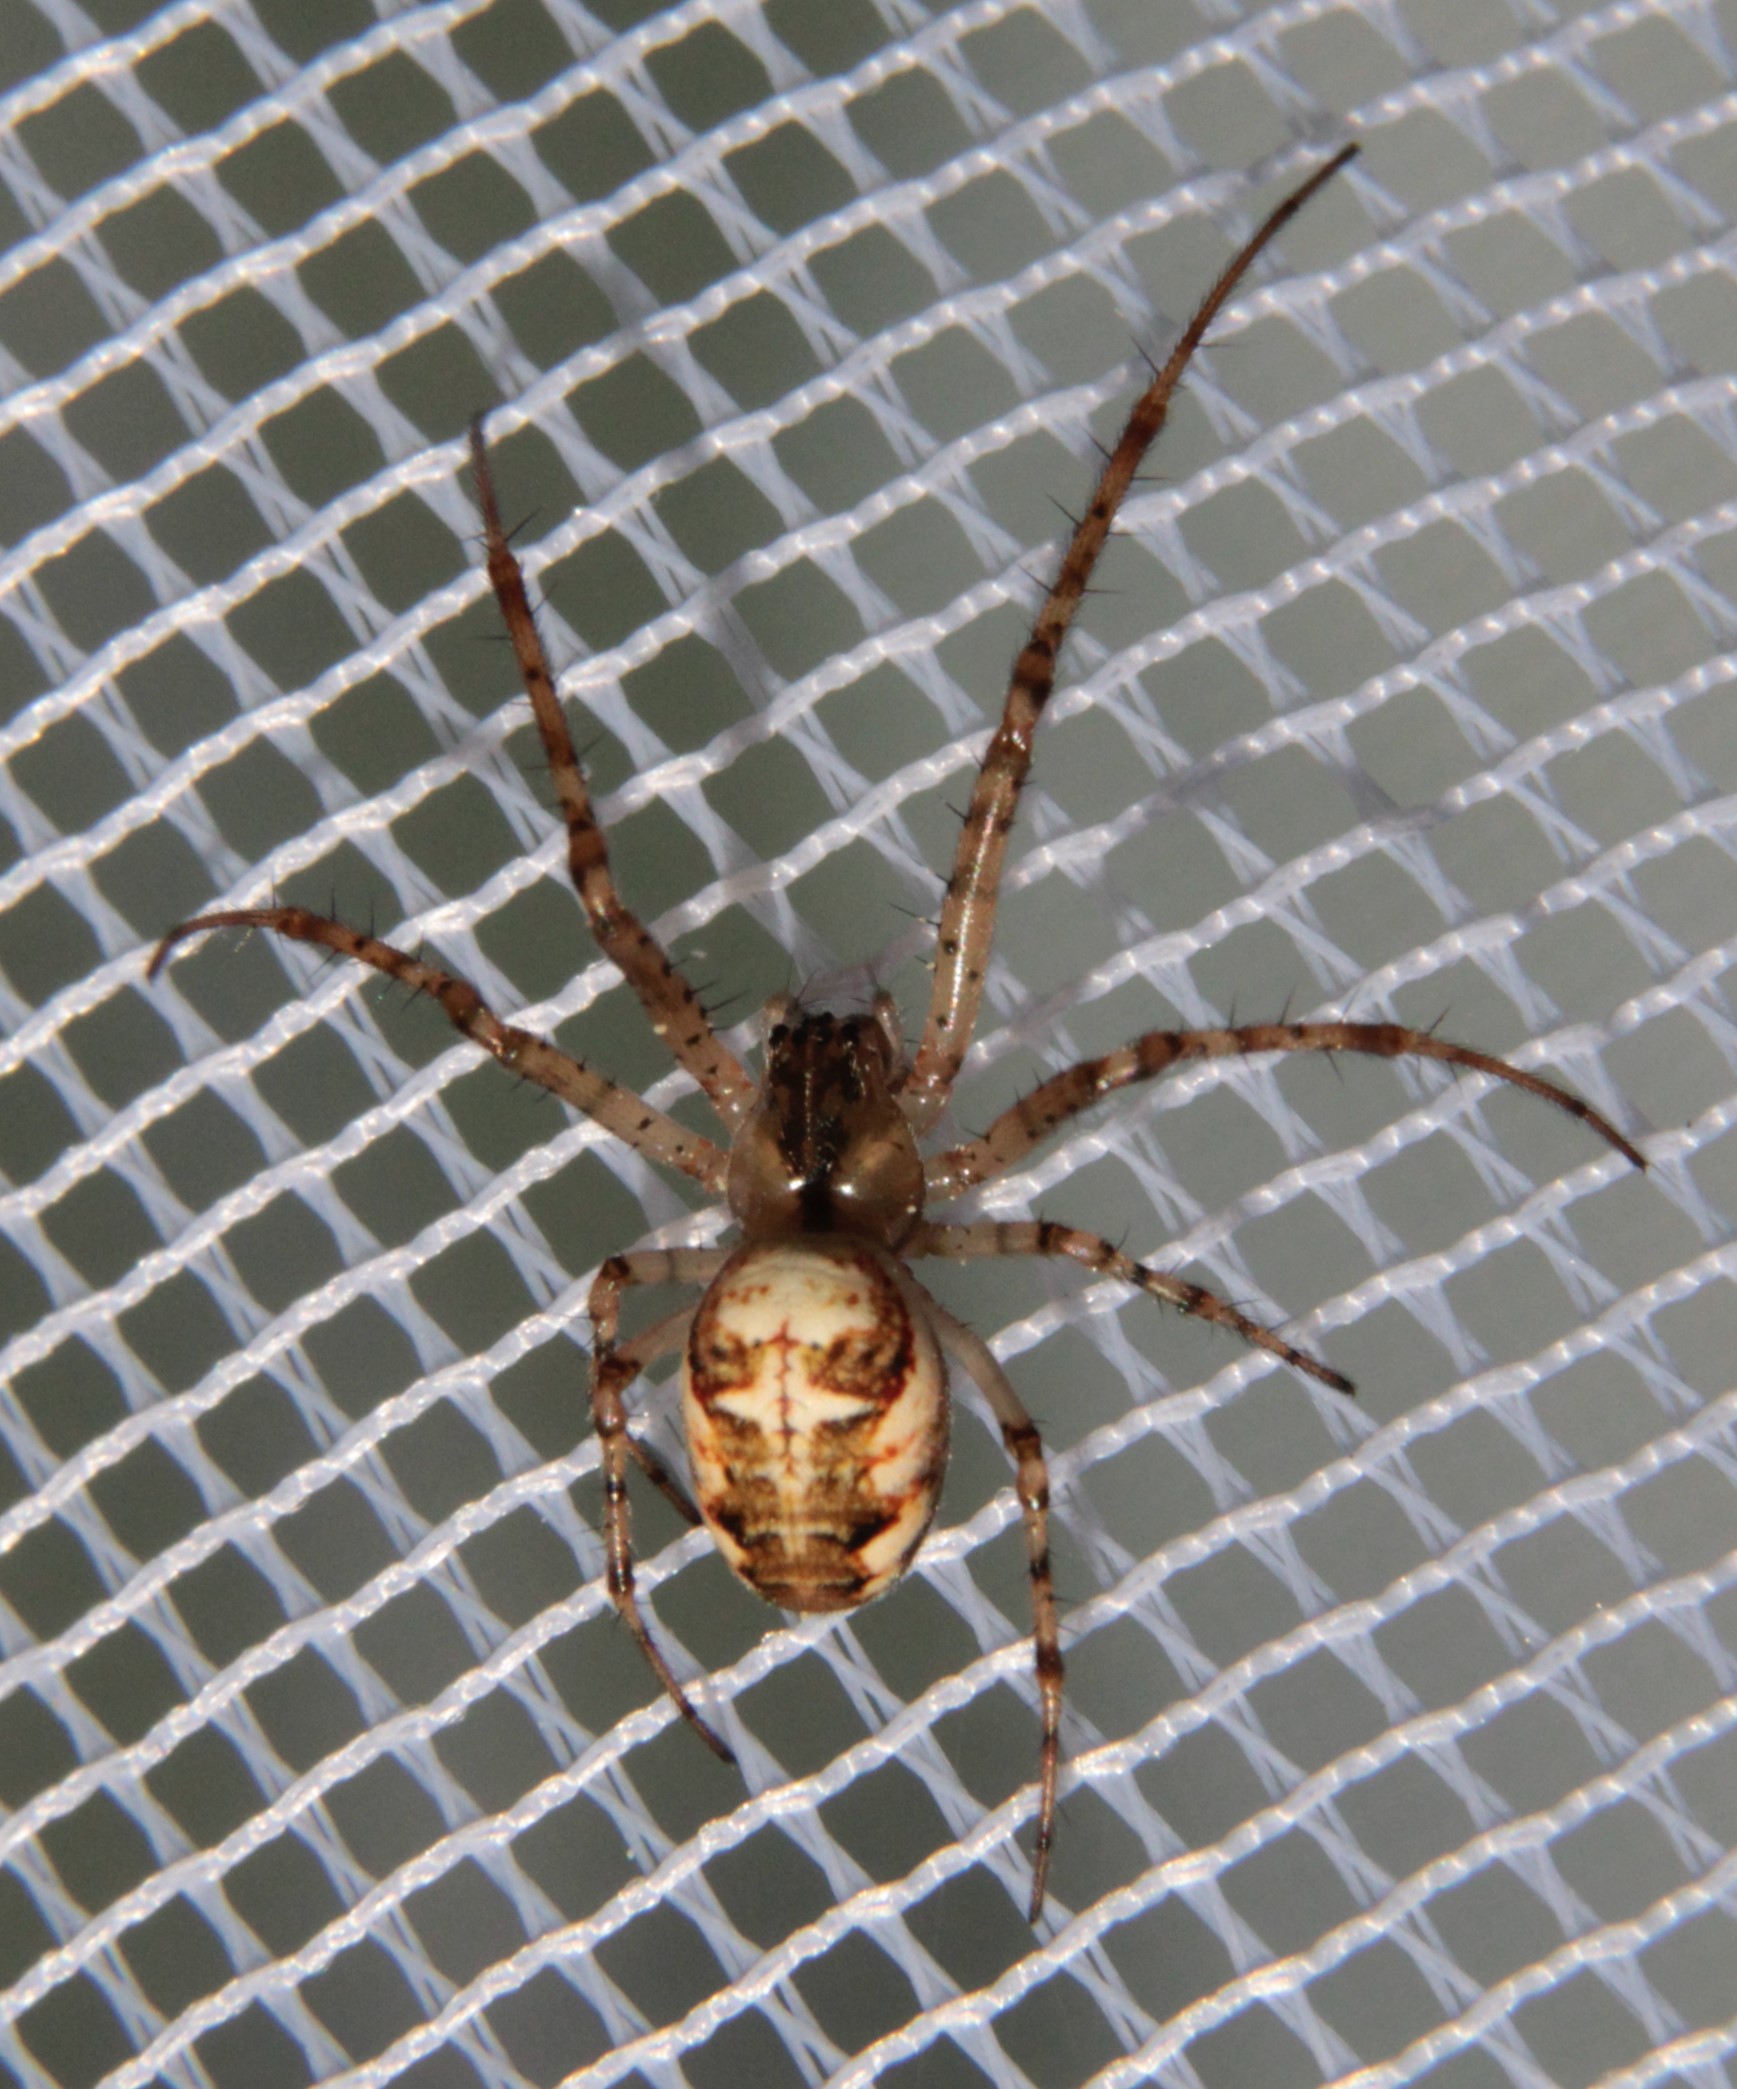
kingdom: Animalia
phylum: Arthropoda
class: Arachnida
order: Araneae
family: Tetragnathidae
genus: Metellina
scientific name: Metellina mengei
